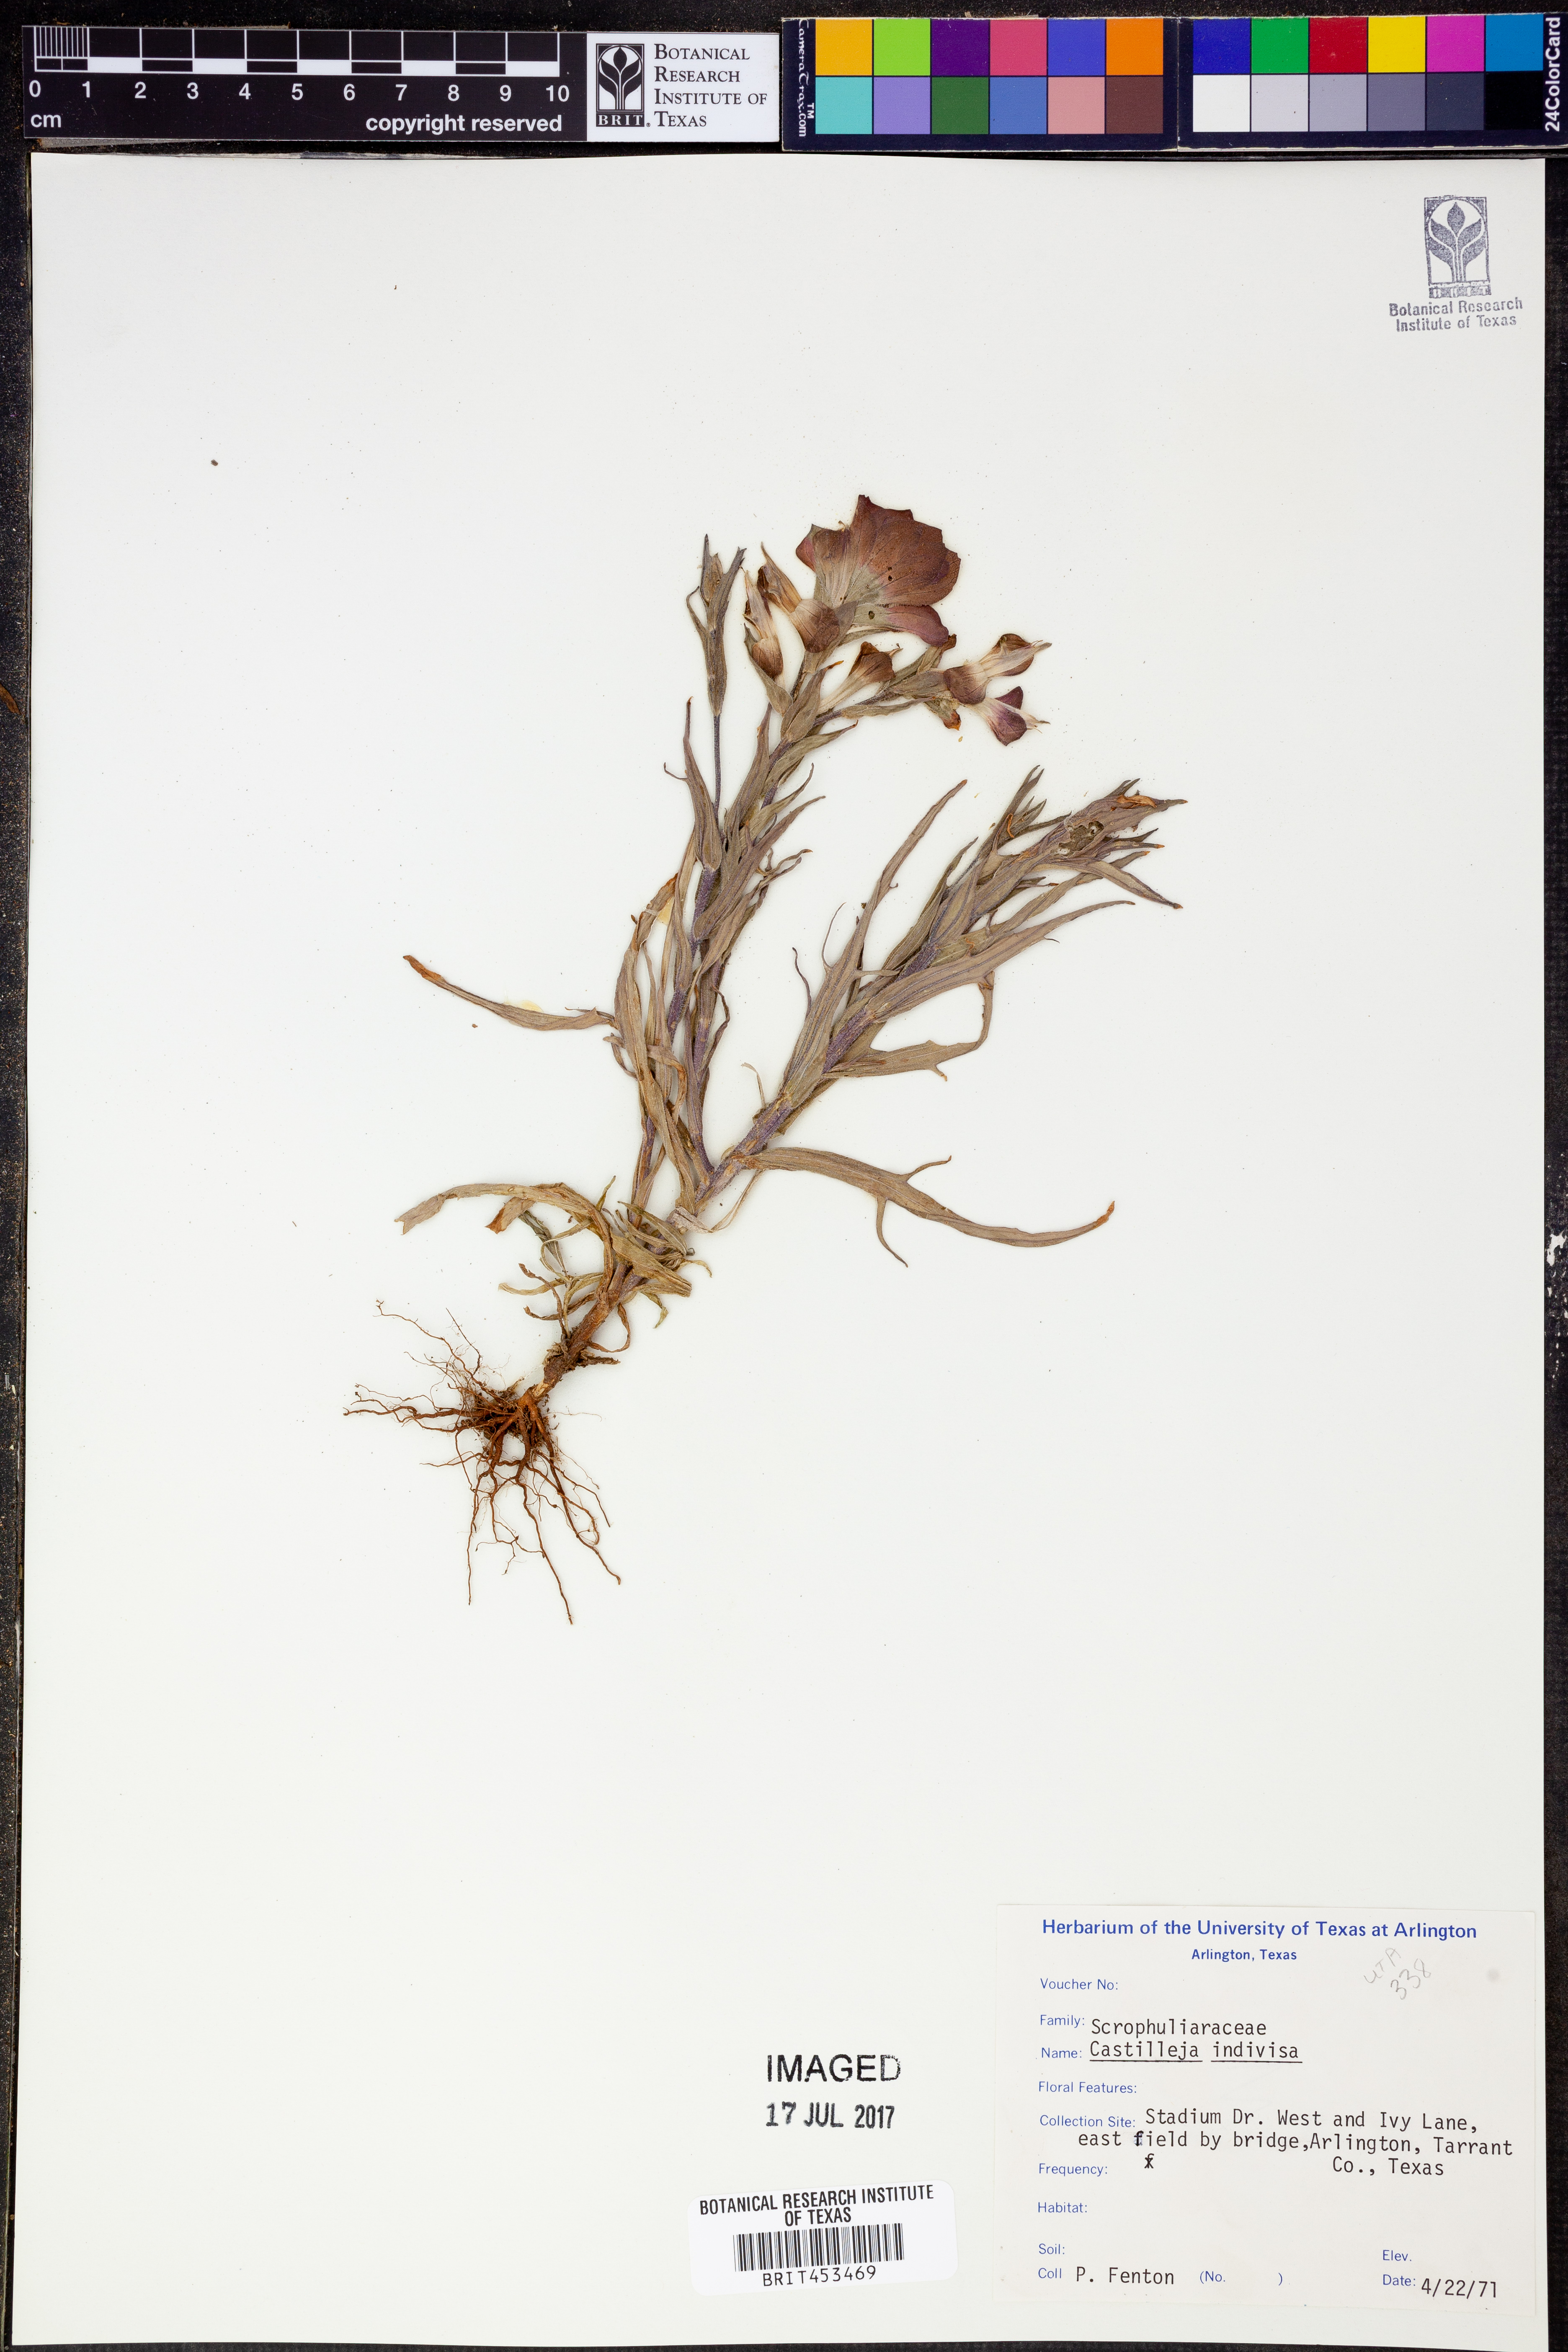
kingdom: Plantae
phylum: Tracheophyta
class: Magnoliopsida
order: Lamiales
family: Orobanchaceae
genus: Castilleja
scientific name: Castilleja indivisa
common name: Texas paintbrush
